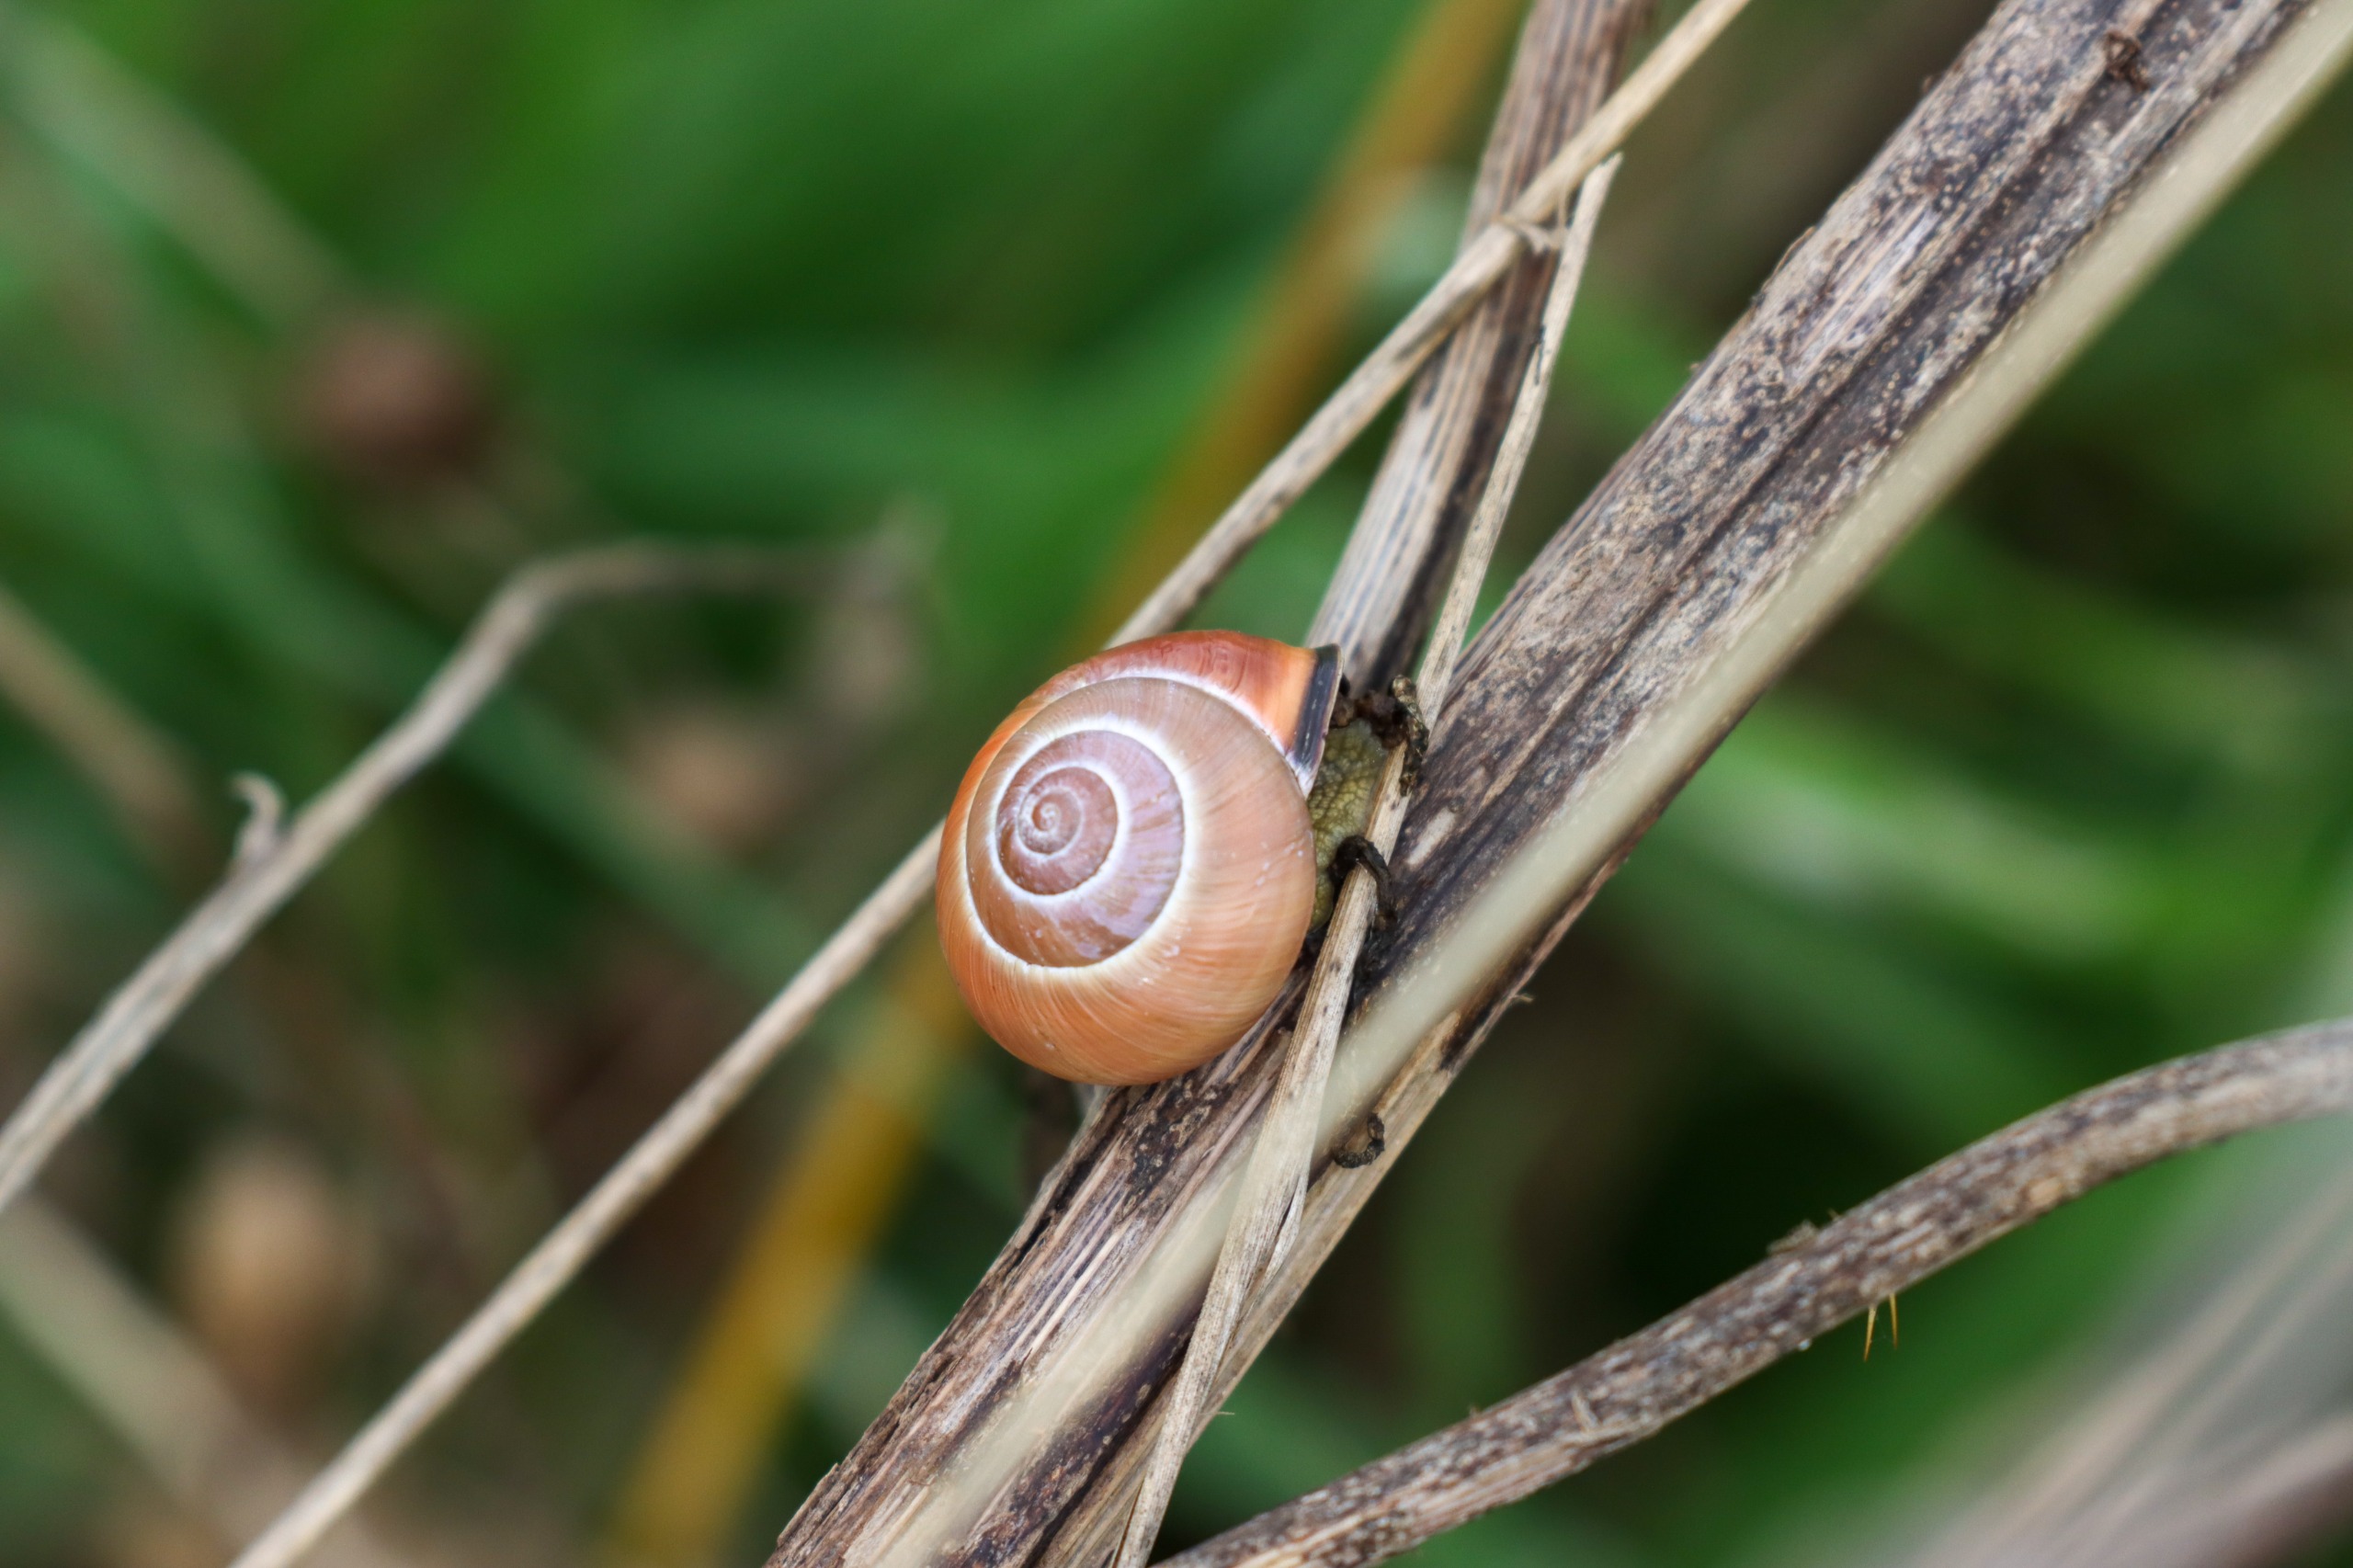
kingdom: Animalia
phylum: Mollusca
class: Gastropoda
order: Stylommatophora
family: Helicidae
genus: Cepaea
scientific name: Cepaea nemoralis
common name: Lundsnegl
